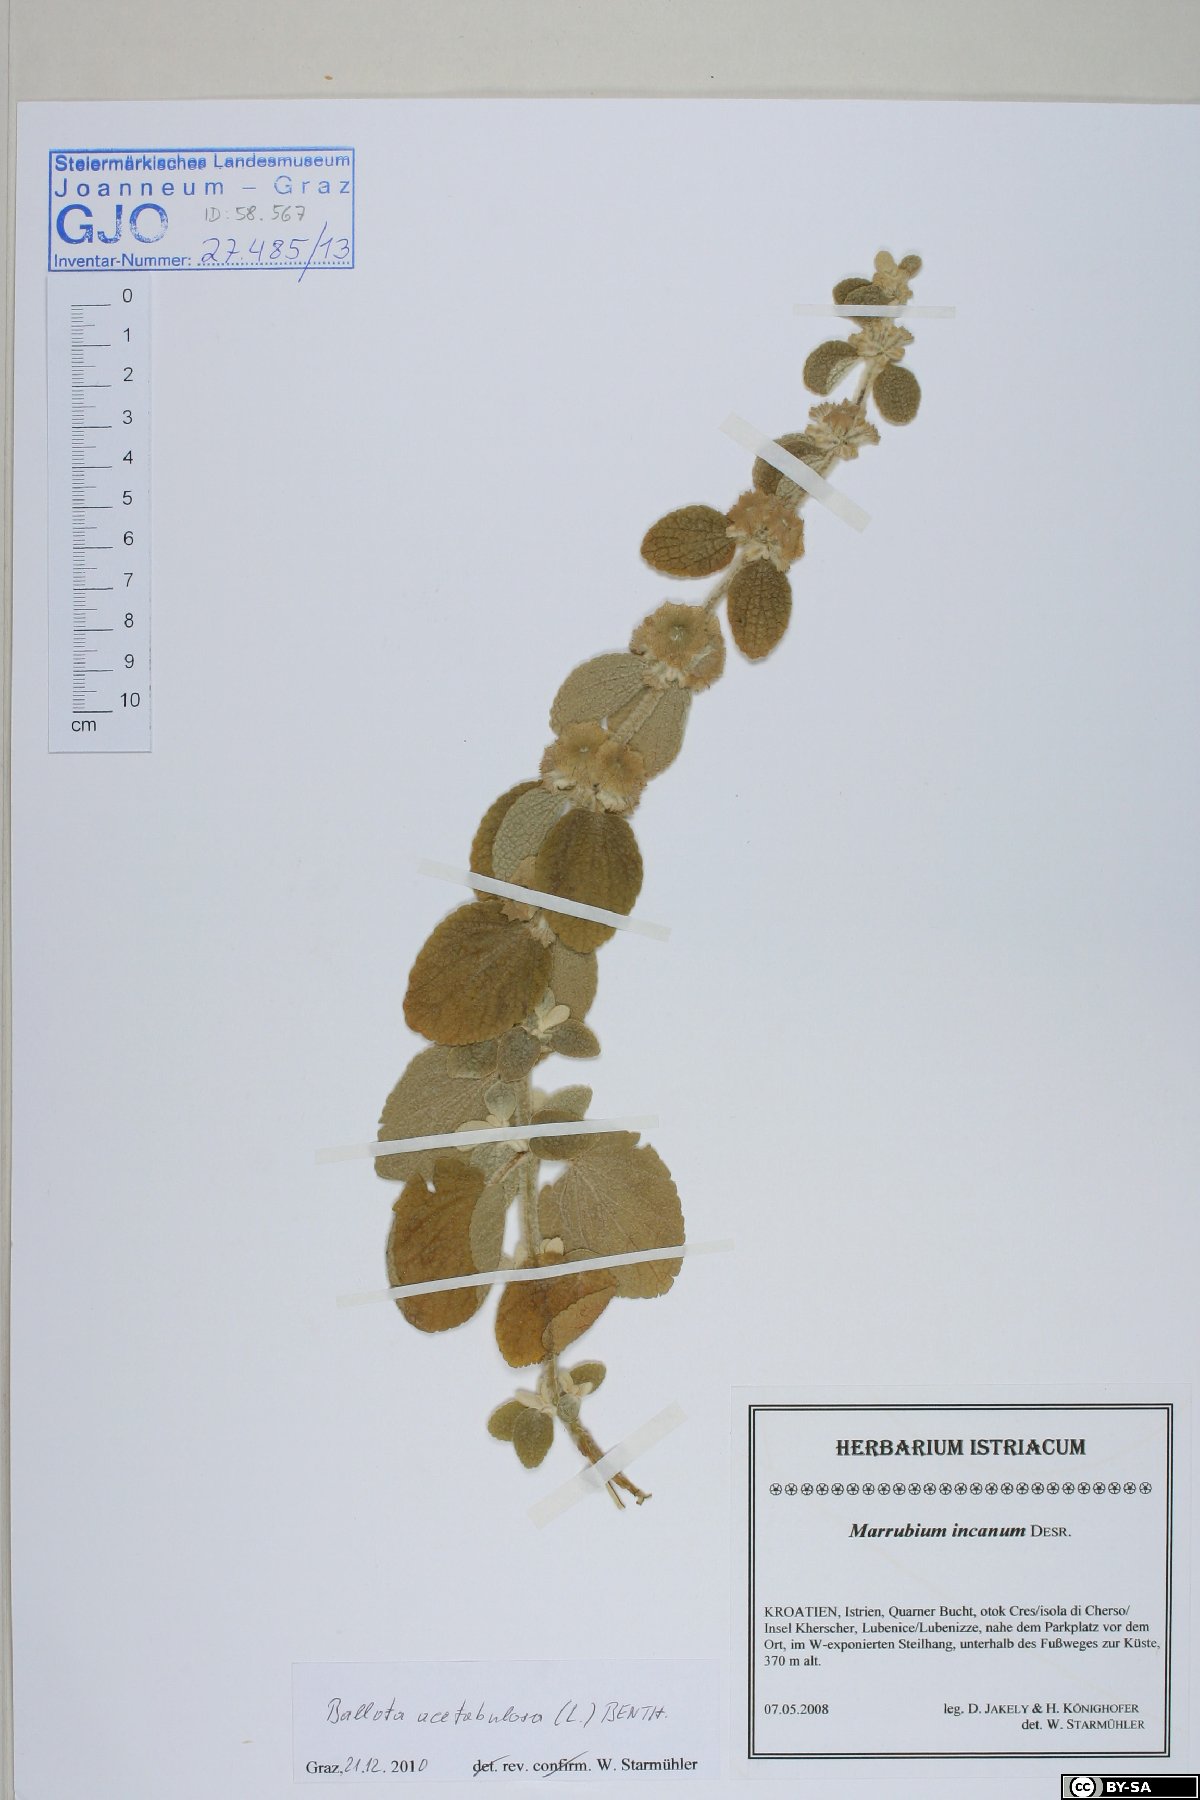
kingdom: Plantae
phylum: Tracheophyta
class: Magnoliopsida
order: Lamiales
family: Lamiaceae
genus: Pseudodictamnus
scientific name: Pseudodictamnus acetabulosus
